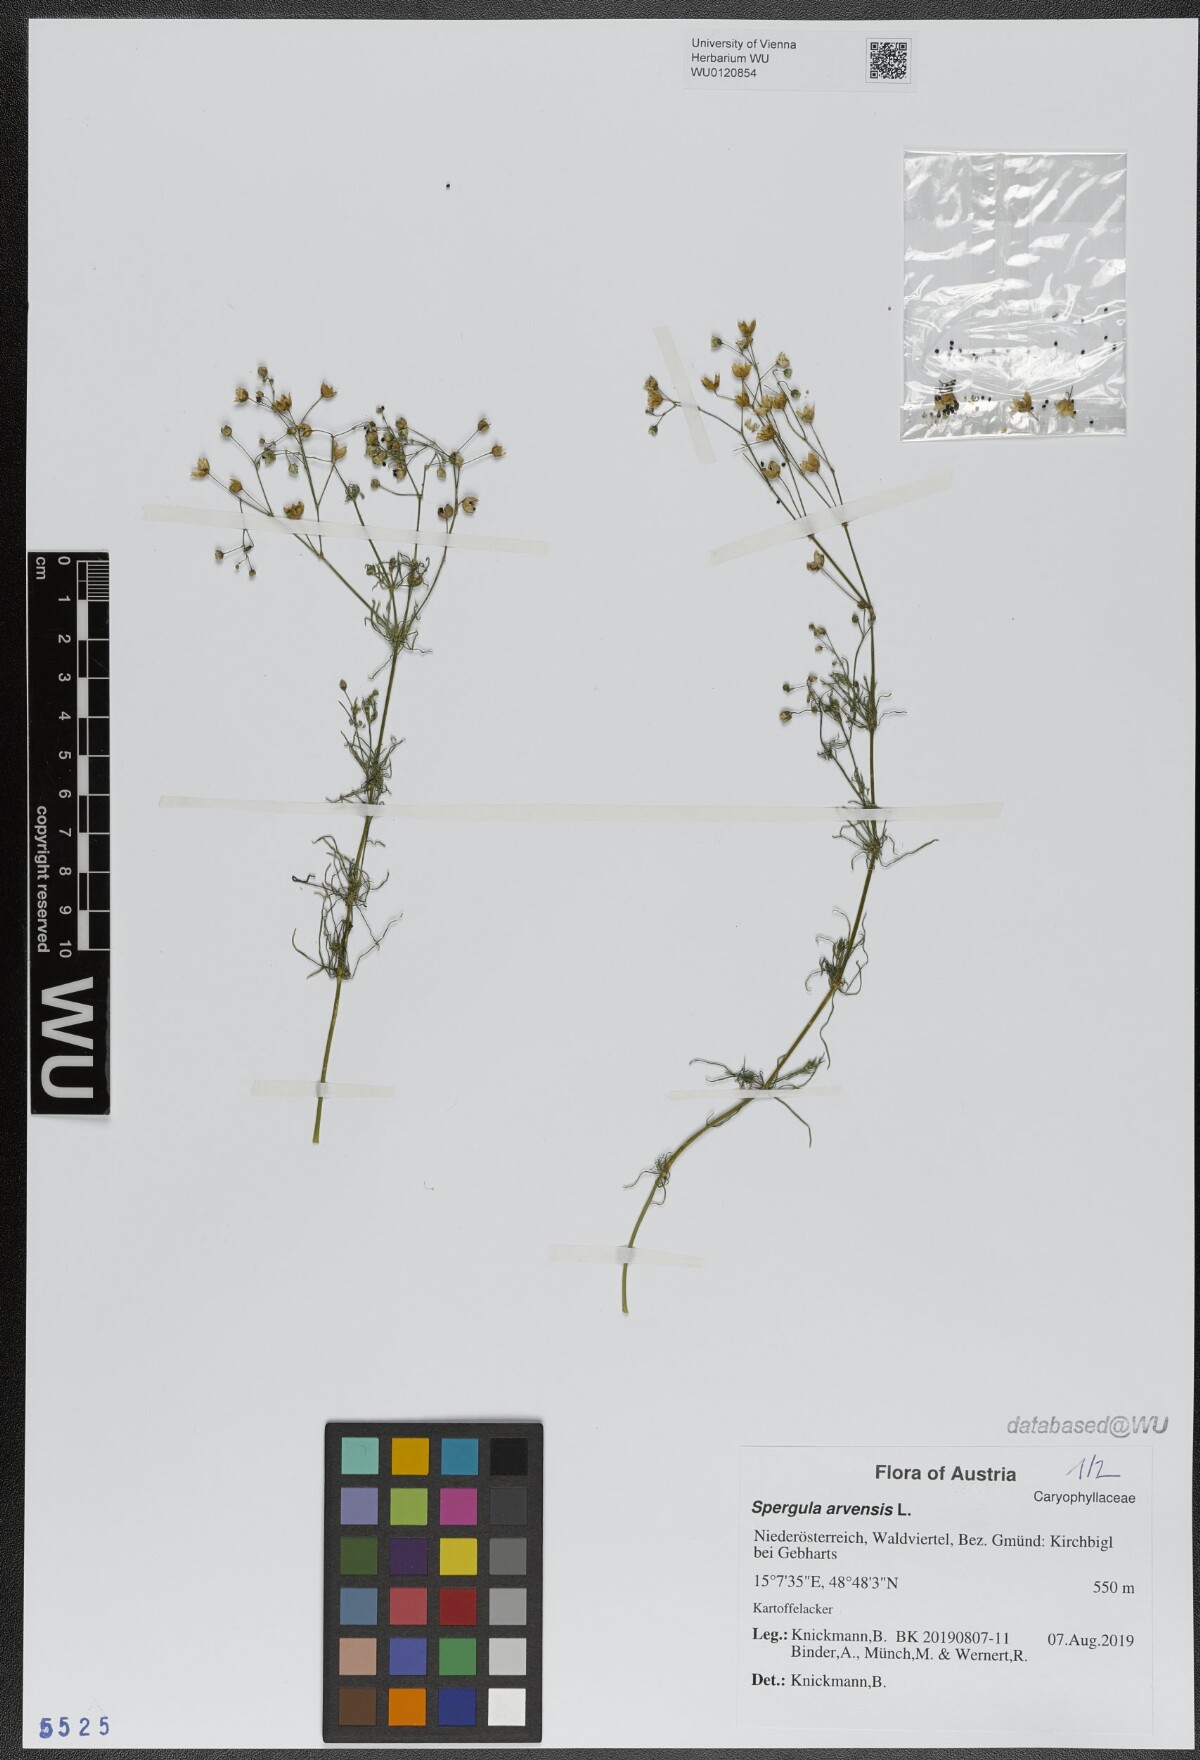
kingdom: Plantae
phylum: Tracheophyta
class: Magnoliopsida
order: Caryophyllales
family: Caryophyllaceae
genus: Spergula
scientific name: Spergula arvensis
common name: Corn spurrey
